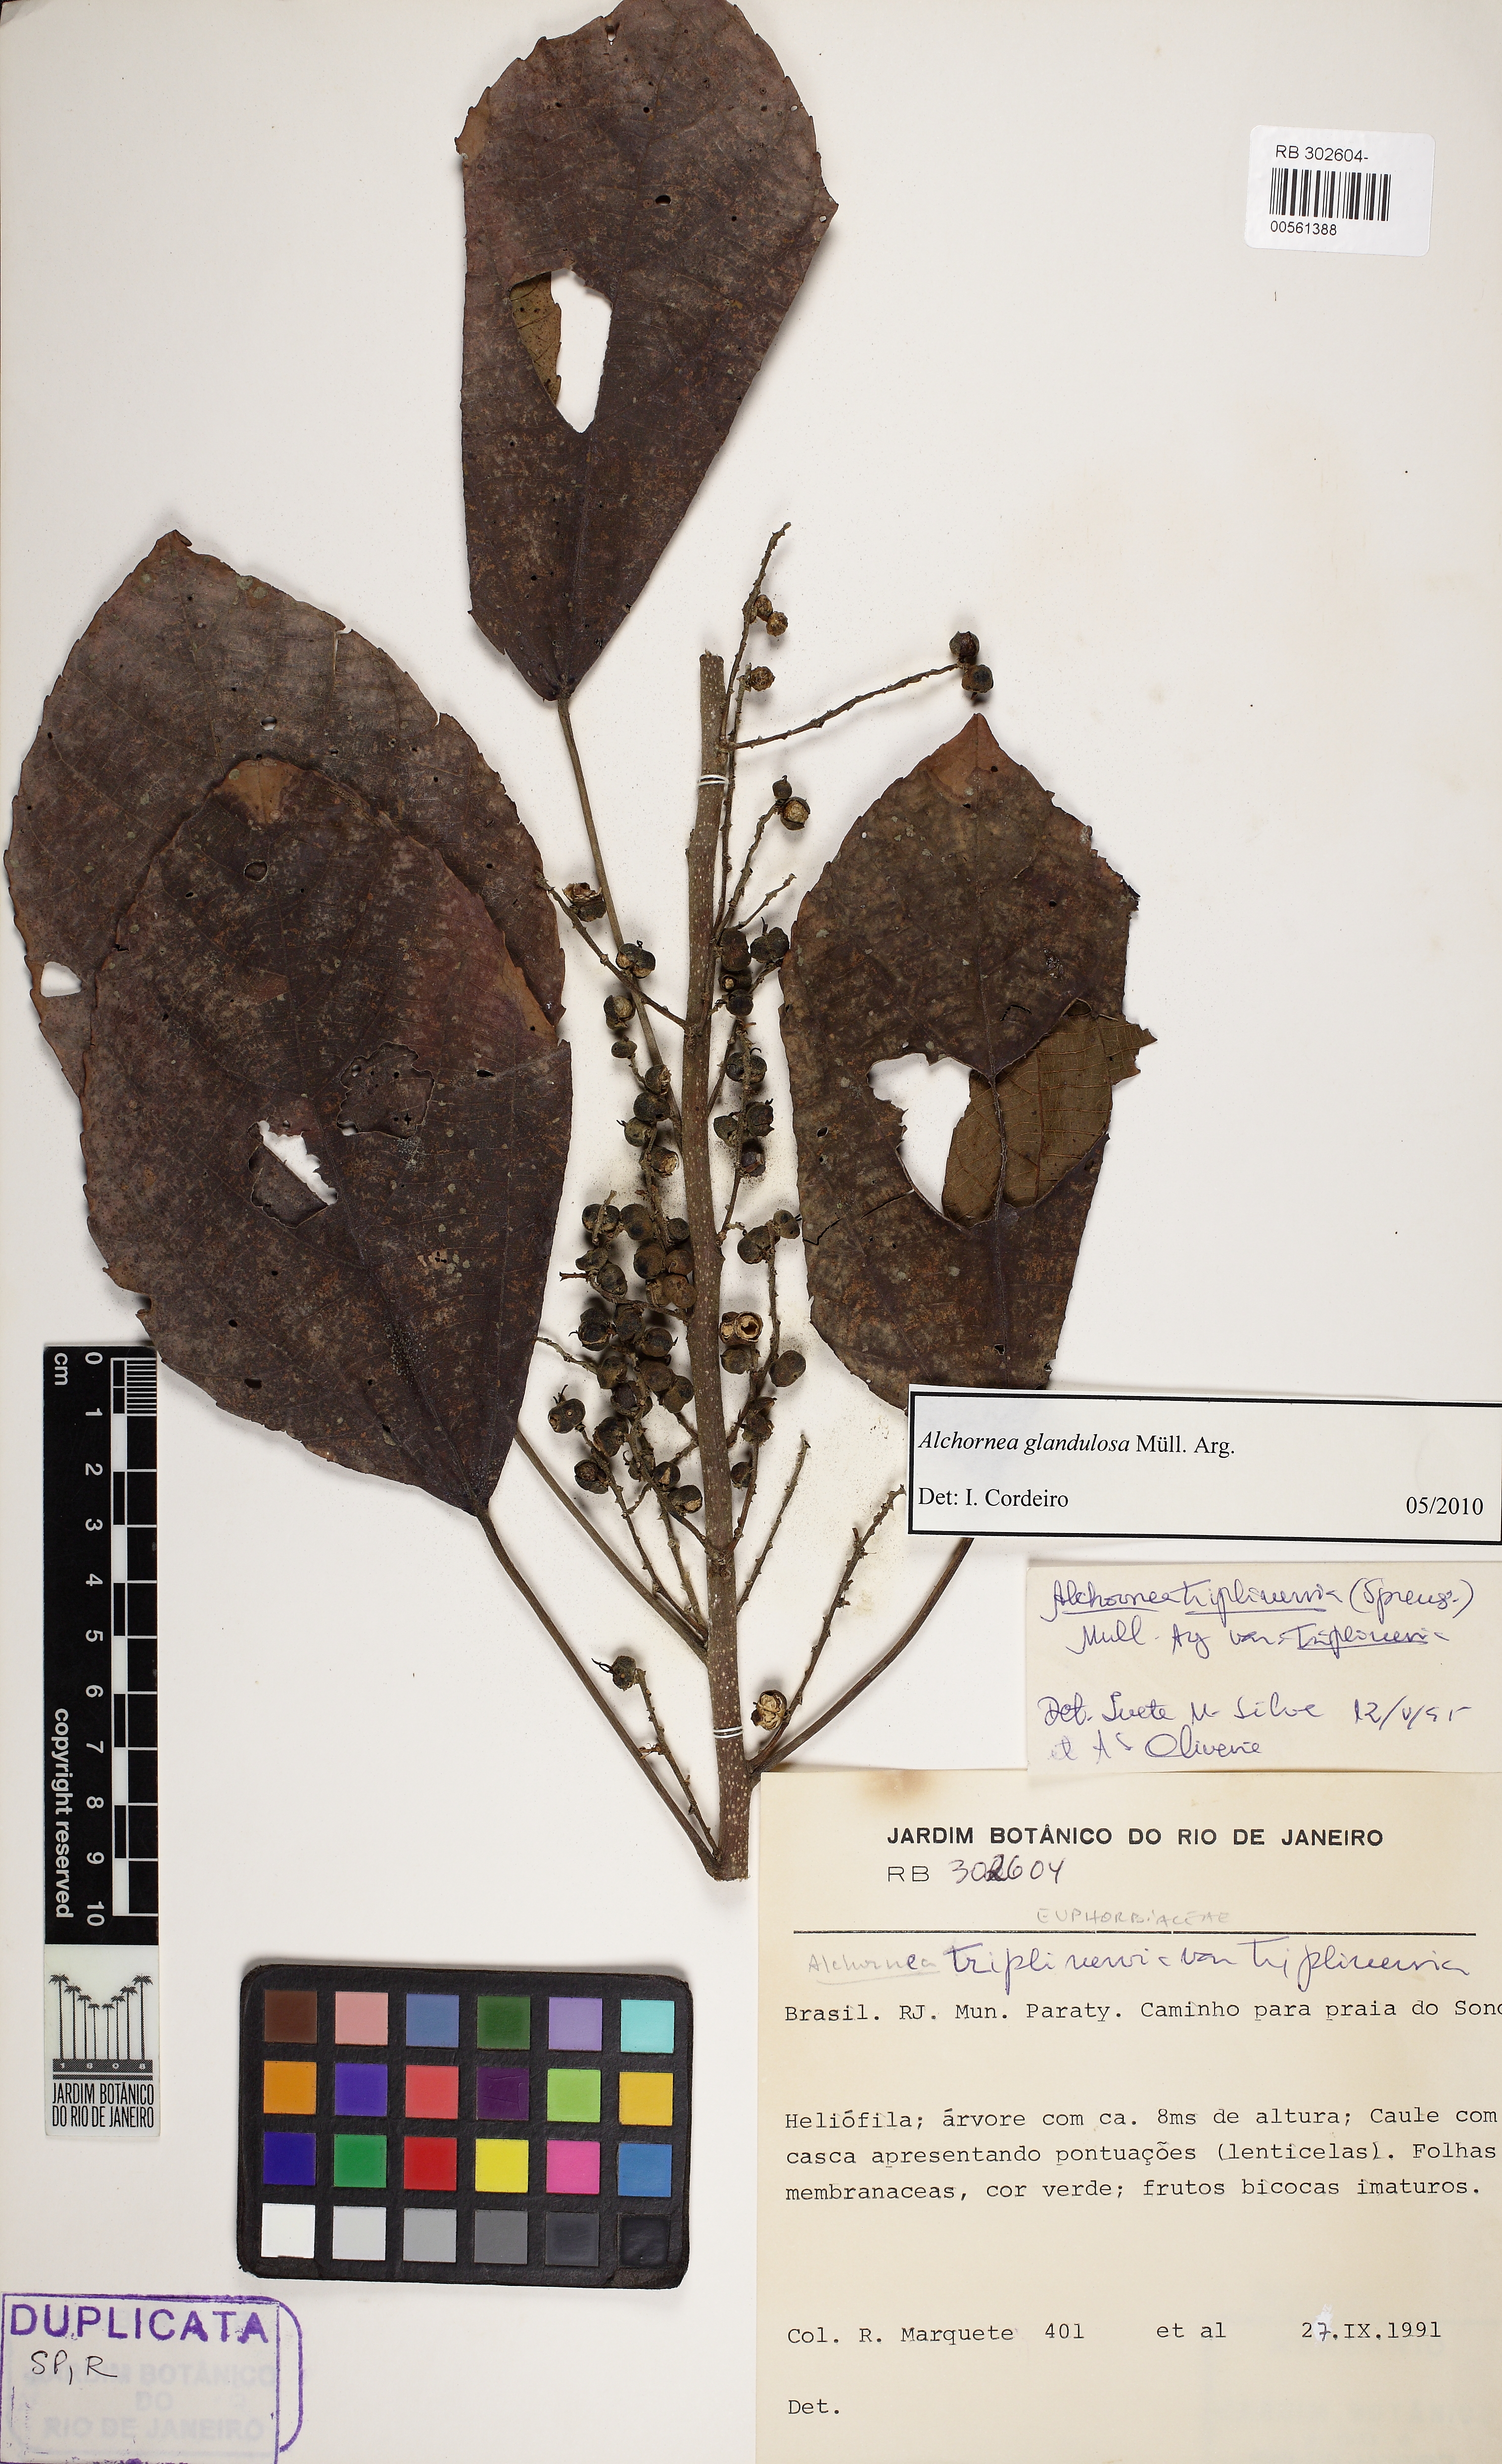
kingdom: Plantae
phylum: Tracheophyta
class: Magnoliopsida
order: Malpighiales
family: Euphorbiaceae
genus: Alchornea
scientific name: Alchornea triplinervia
